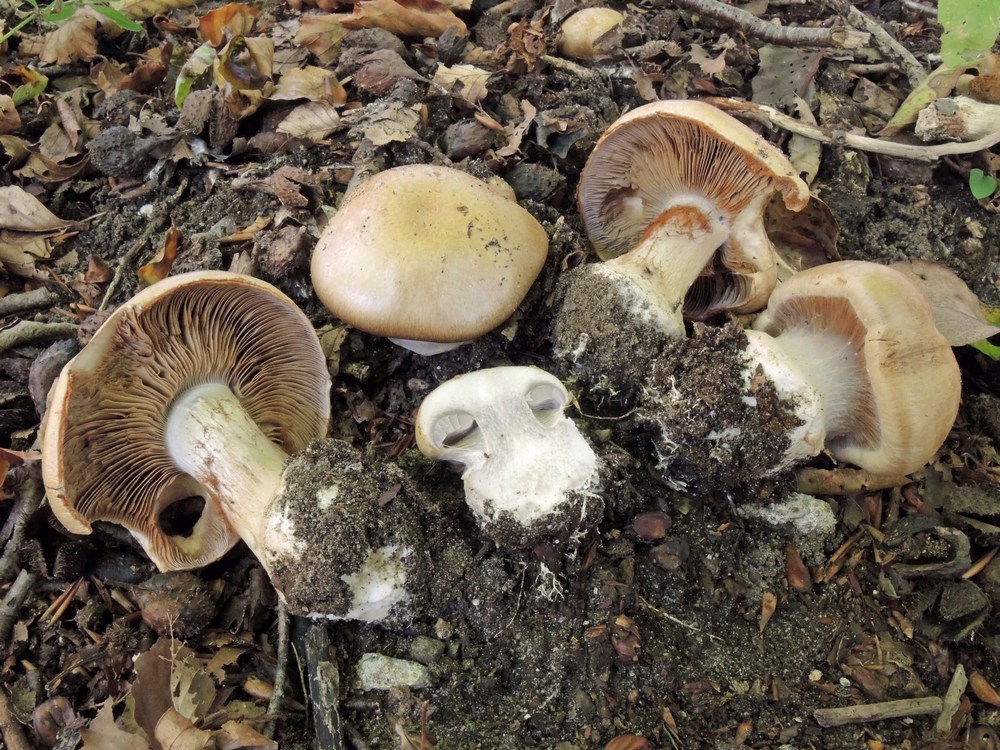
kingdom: Fungi
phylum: Basidiomycota
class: Agaricomycetes
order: Agaricales
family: Cortinariaceae
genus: Cortinarius
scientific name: Cortinarius anserinus
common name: bøge-slørhat
